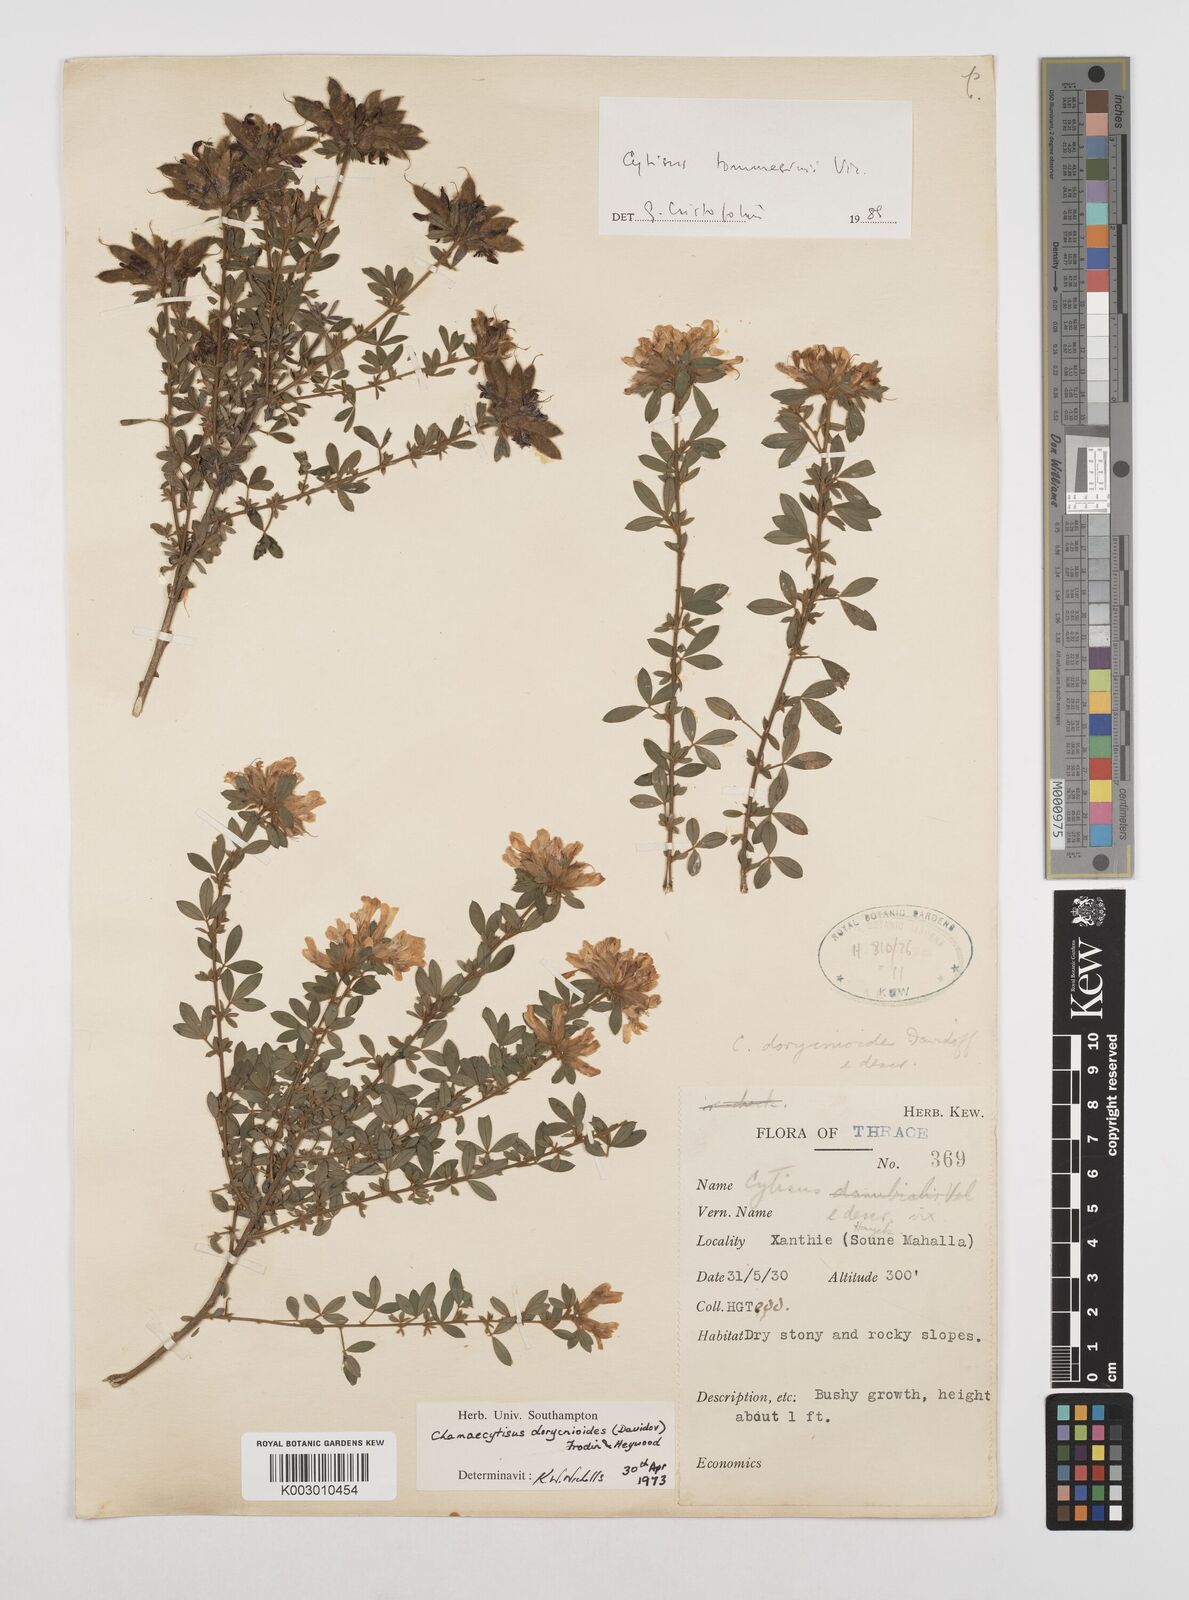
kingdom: Plantae
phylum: Tracheophyta
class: Magnoliopsida
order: Fabales
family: Fabaceae
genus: Chamaecytisus
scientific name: Chamaecytisus tommasinii
